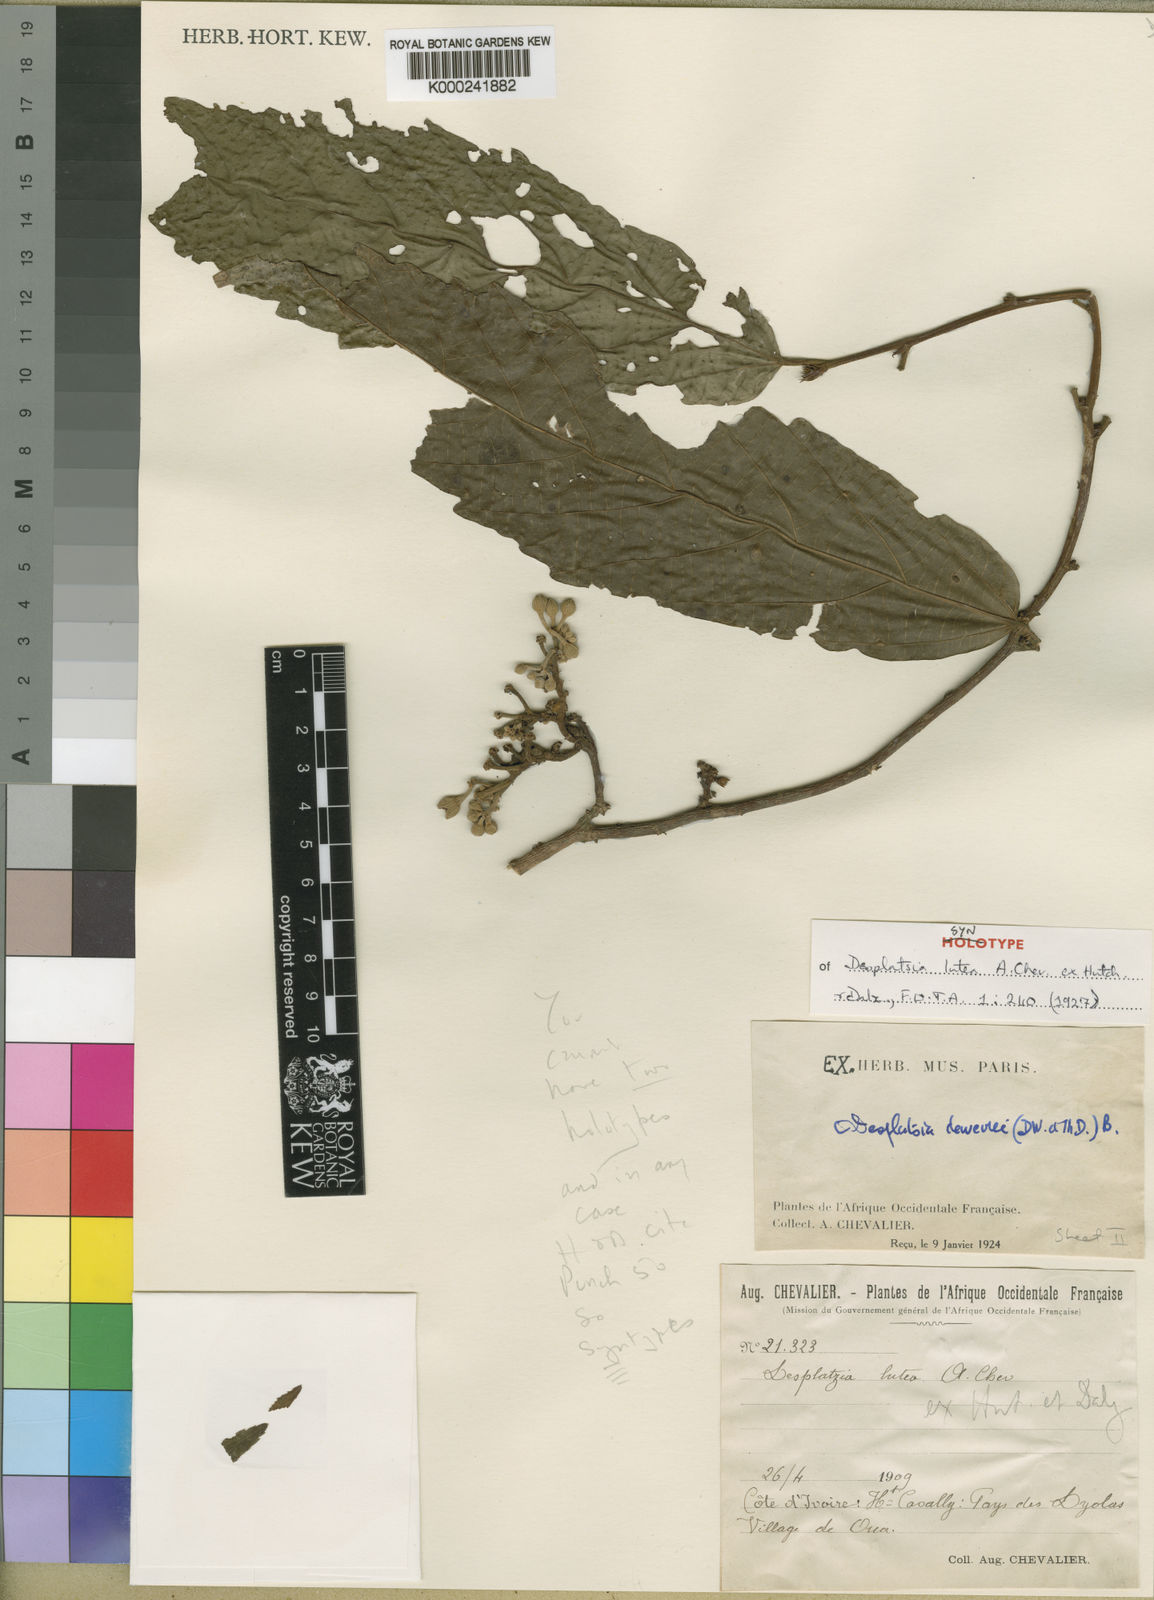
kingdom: Plantae
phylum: Tracheophyta
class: Magnoliopsida
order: Malvales
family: Malvaceae
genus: Desplatsia
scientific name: Desplatsia dewevrei
